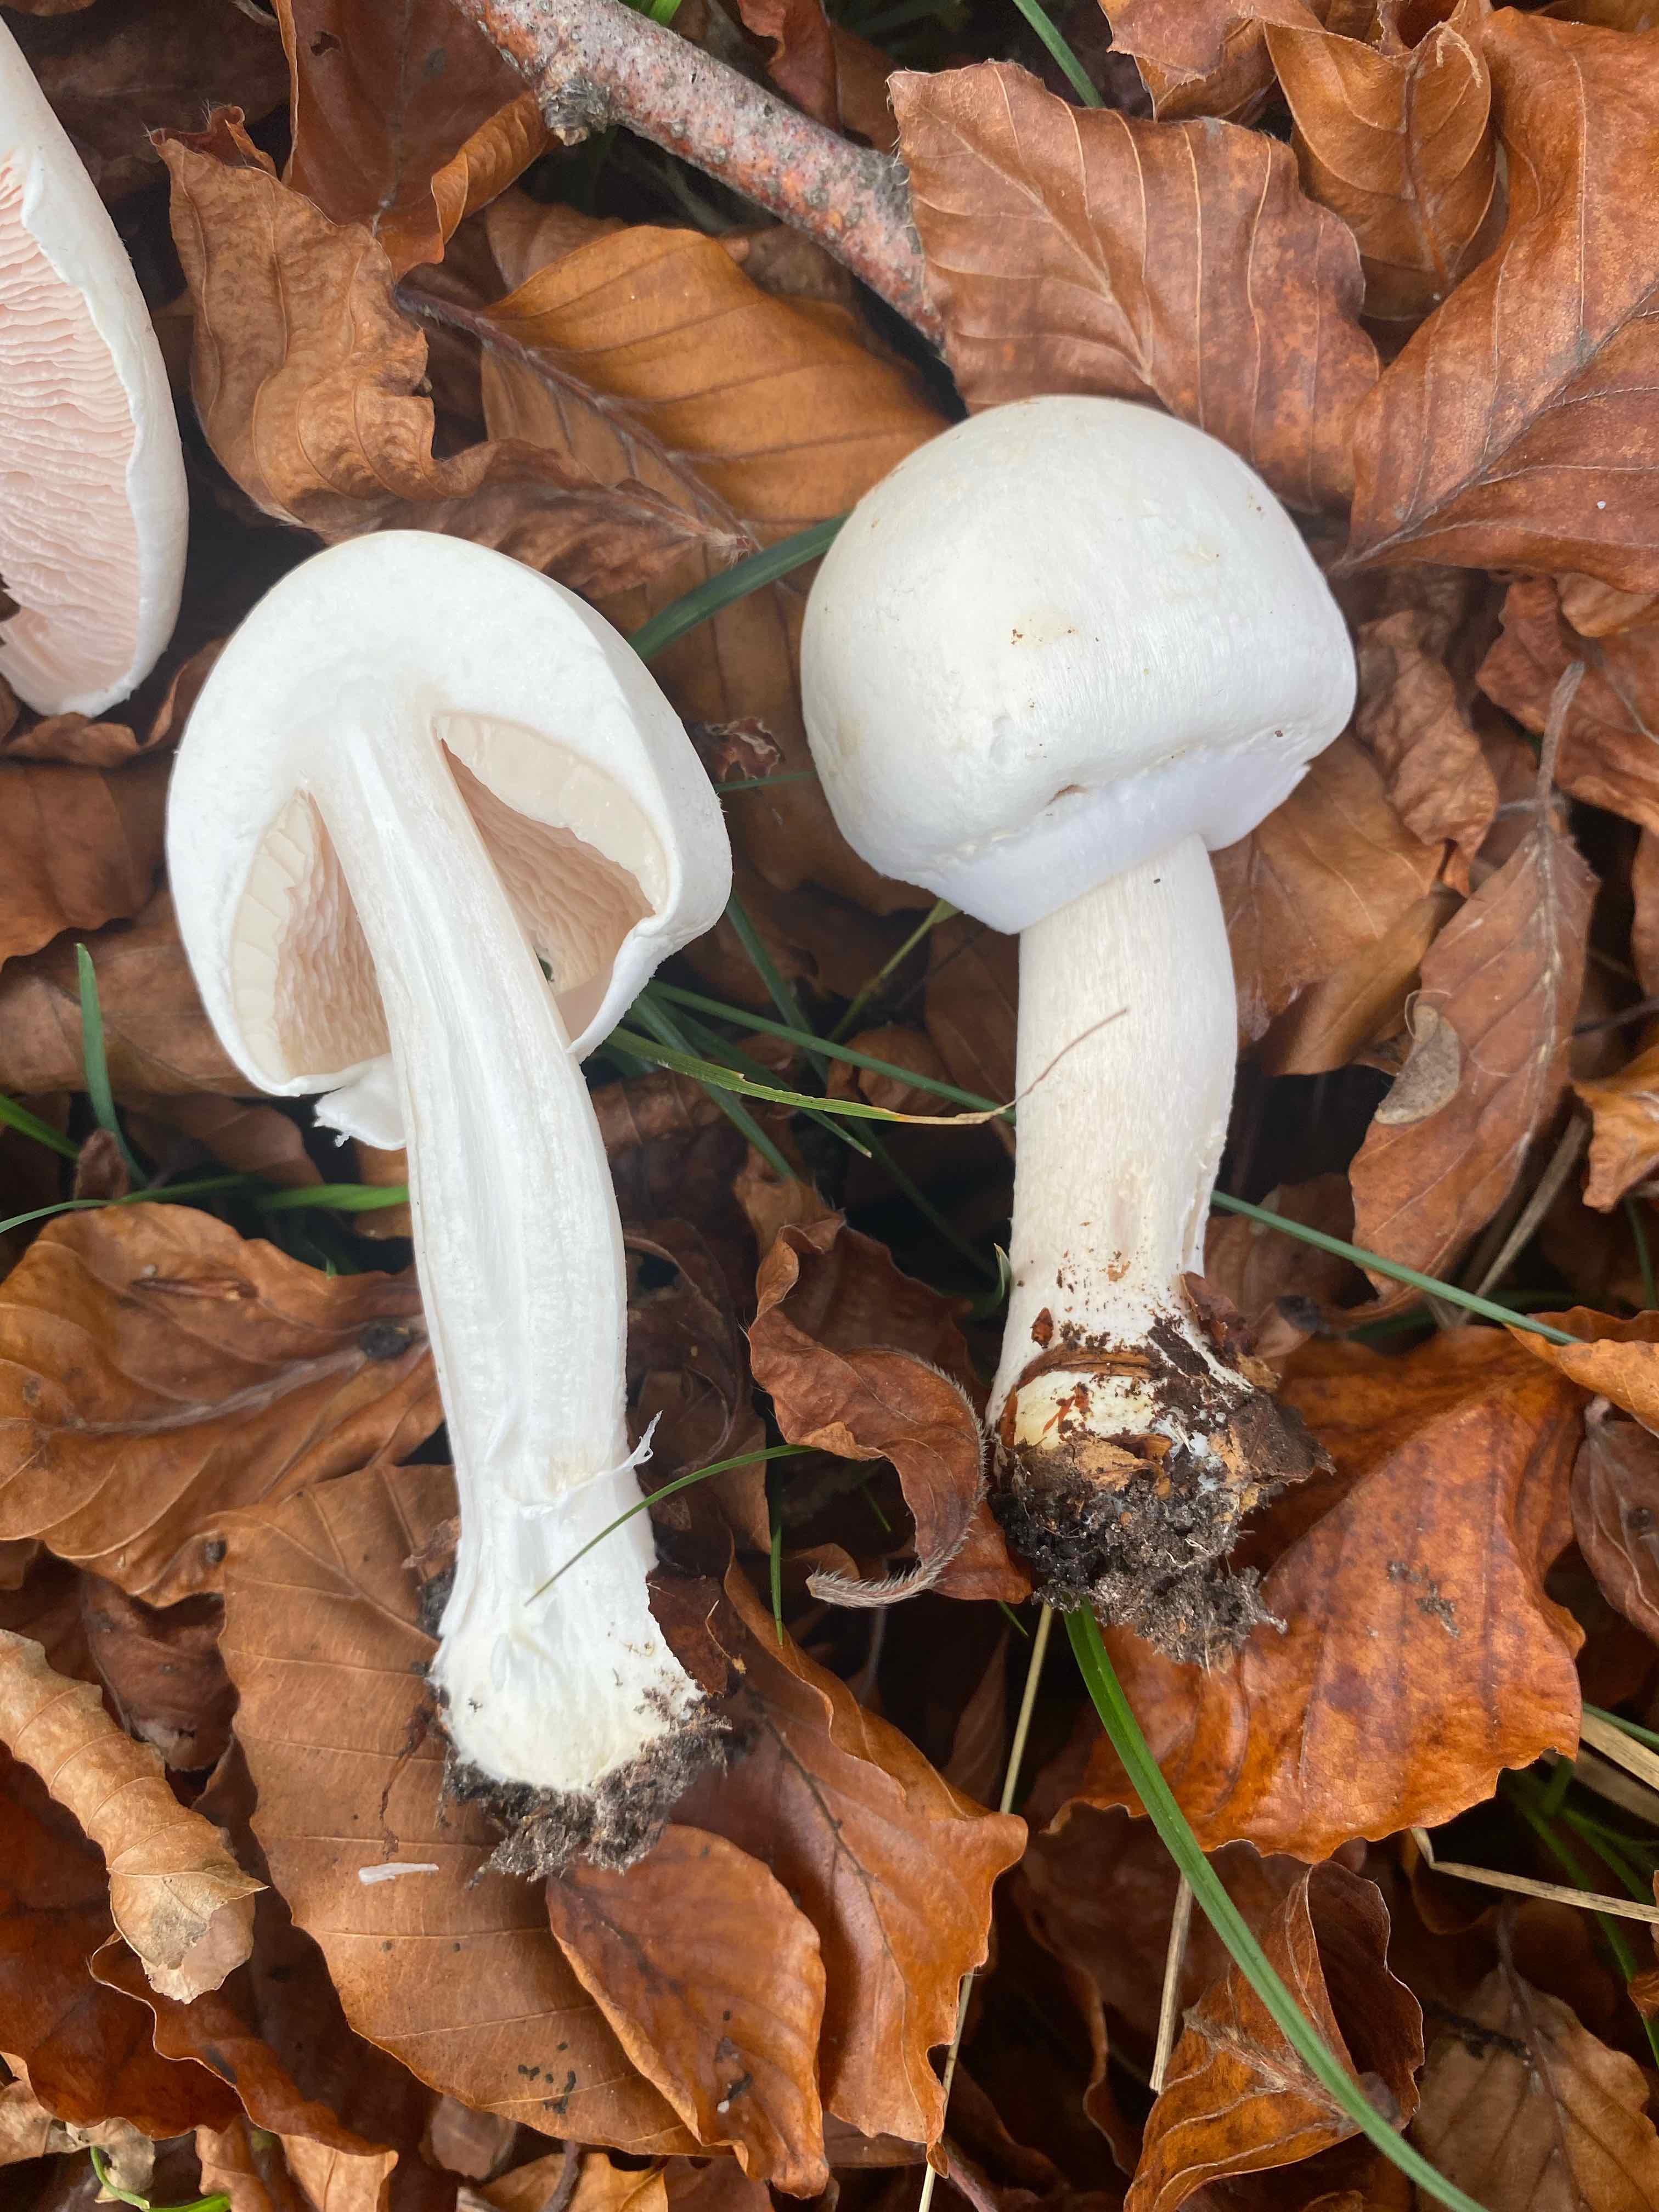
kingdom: Fungi
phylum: Basidiomycota
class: Agaricomycetes
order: Agaricales
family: Agaricaceae
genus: Agaricus
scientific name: Agaricus arvensis
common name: ager-champignon
